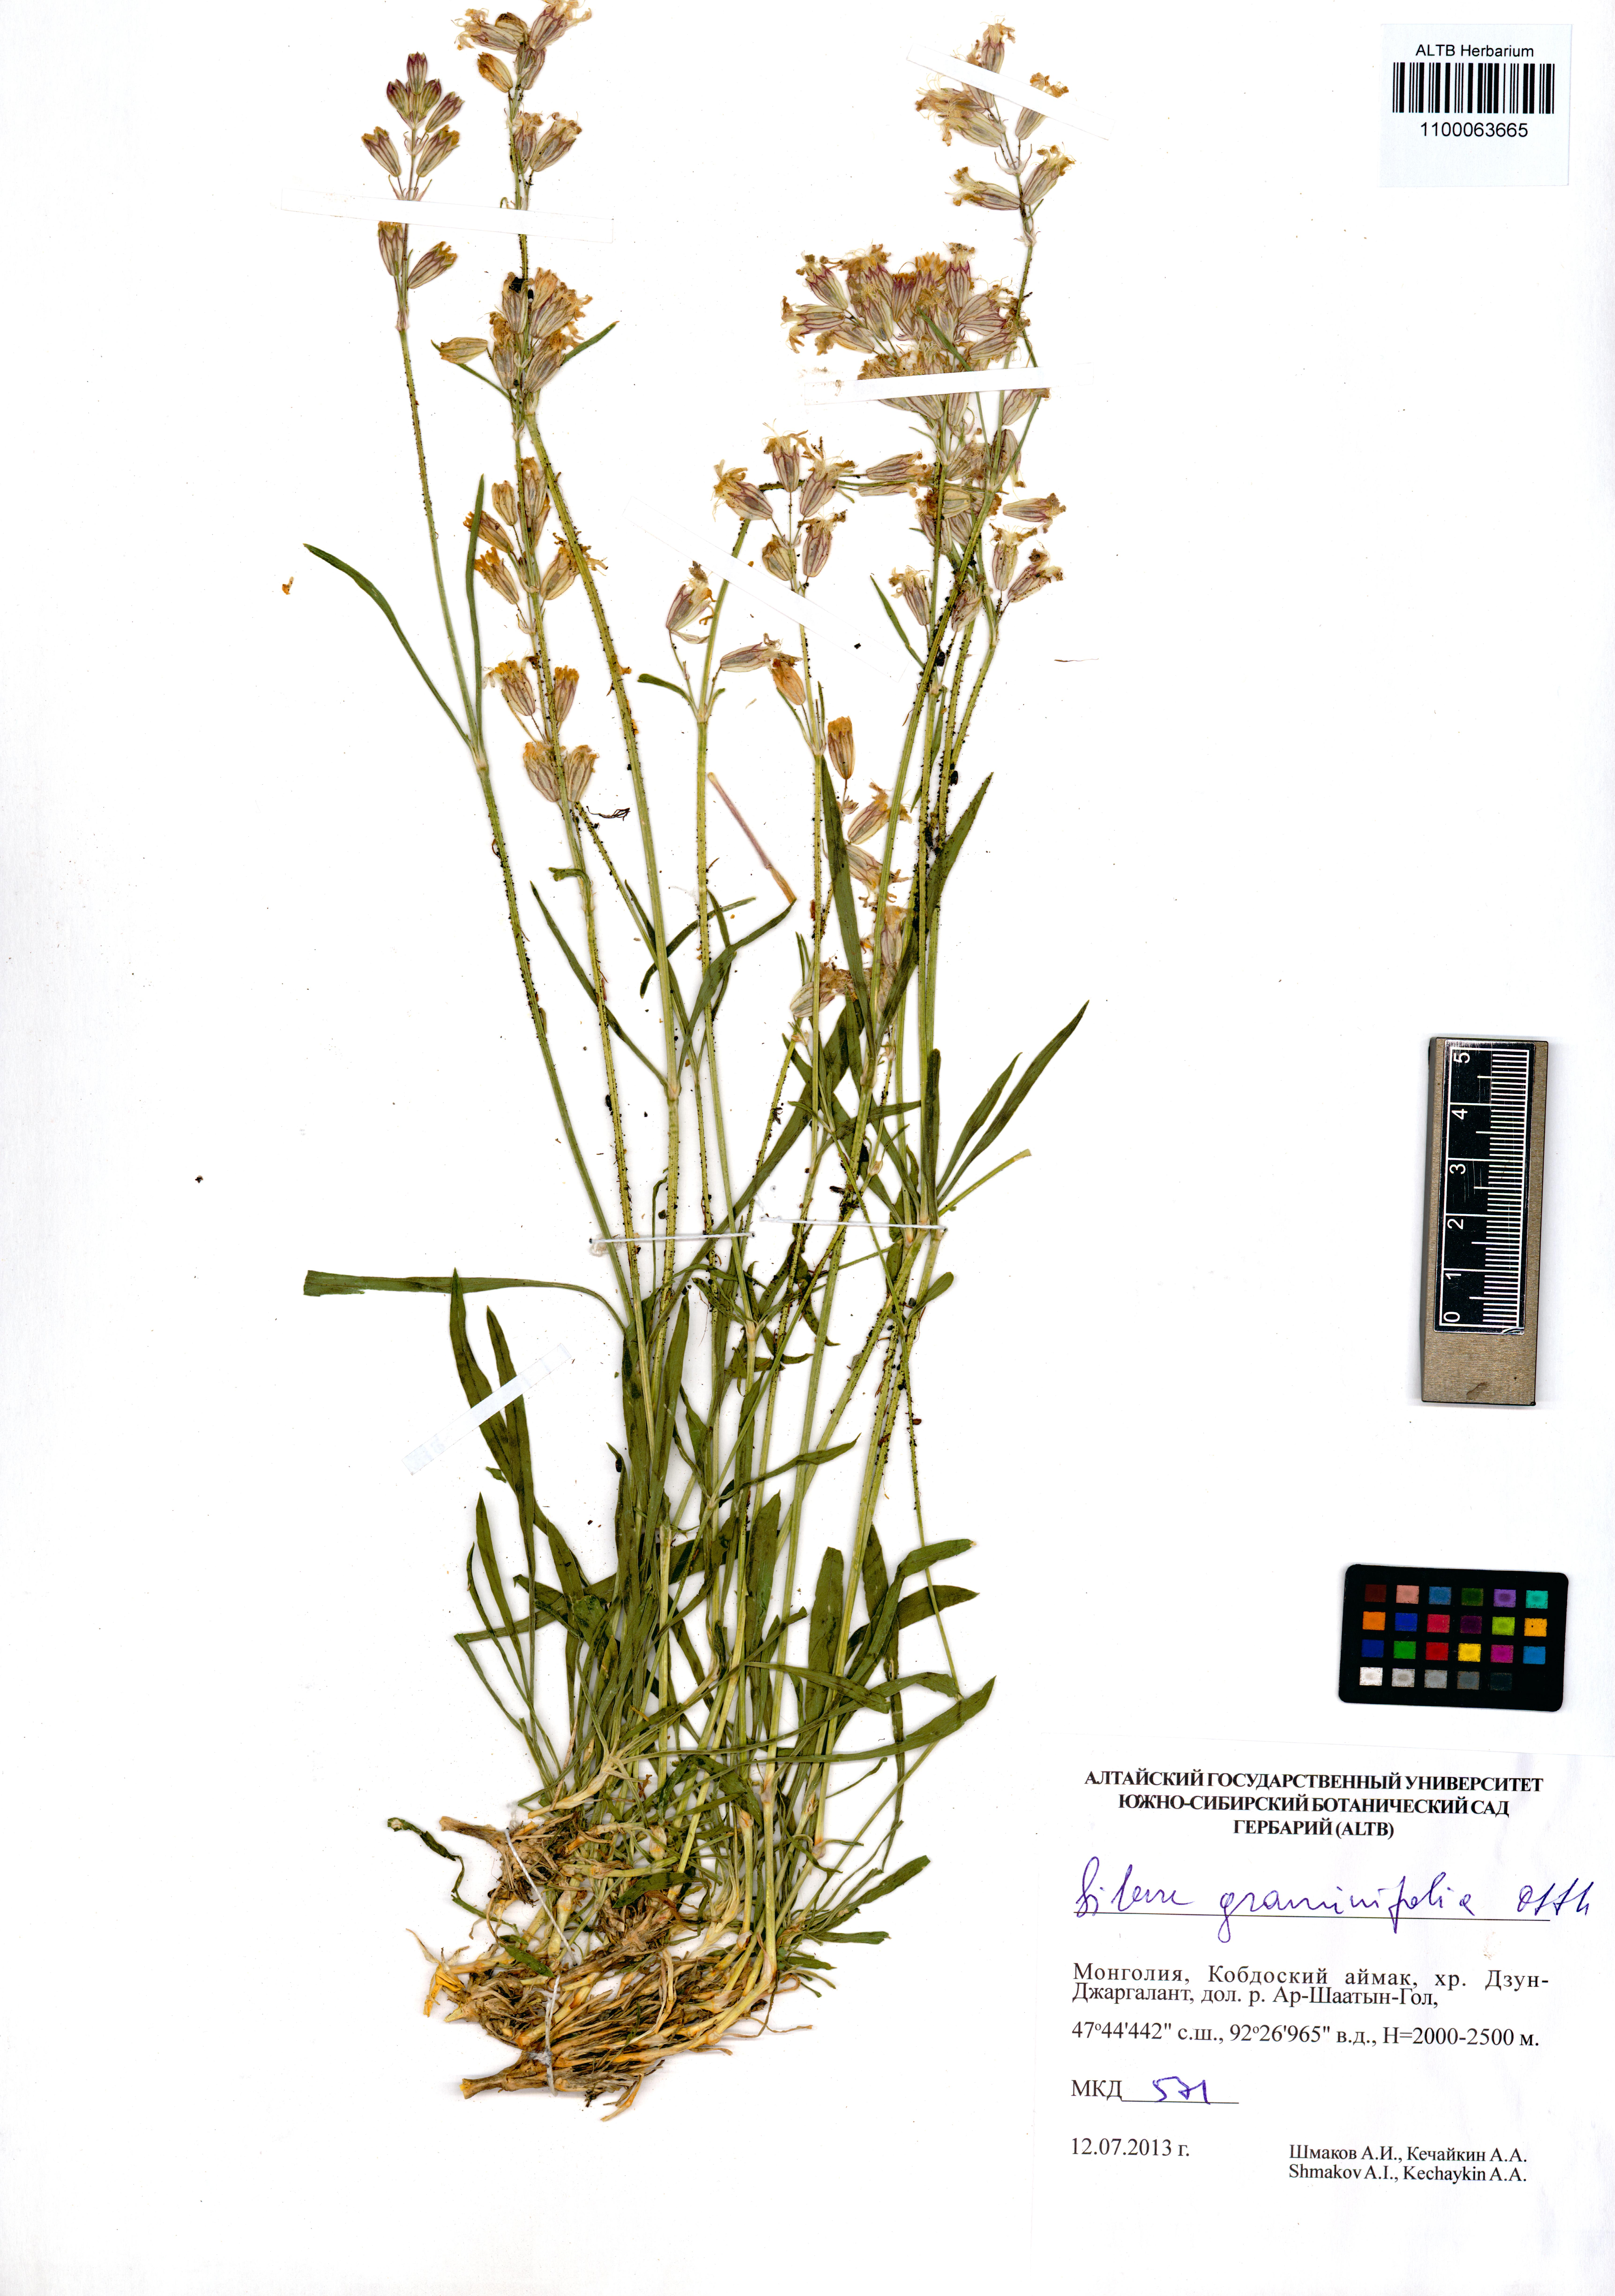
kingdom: Plantae
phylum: Tracheophyta
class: Magnoliopsida
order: Caryophyllales
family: Caryophyllaceae
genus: Silene
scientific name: Silene graminifolia
